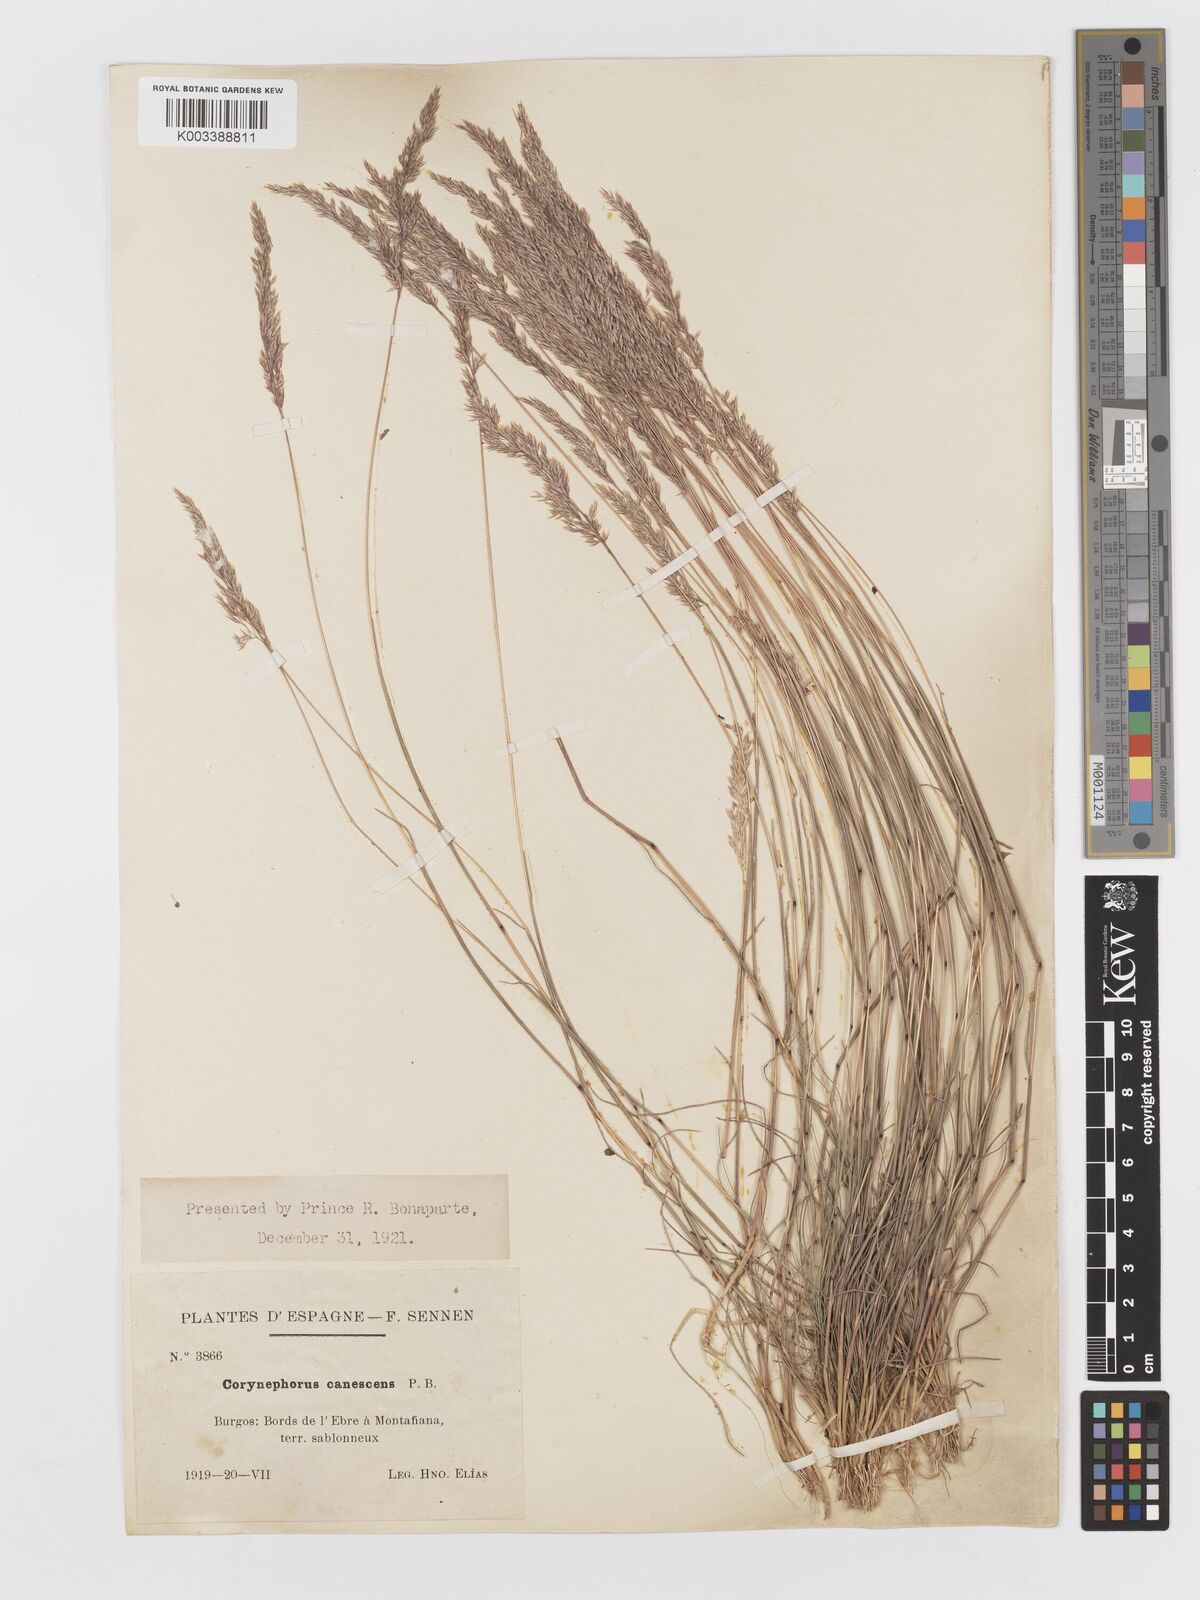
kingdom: Plantae
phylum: Tracheophyta
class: Liliopsida
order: Poales
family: Poaceae
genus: Corynephorus
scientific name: Corynephorus canescens
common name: Grey hair-grass
